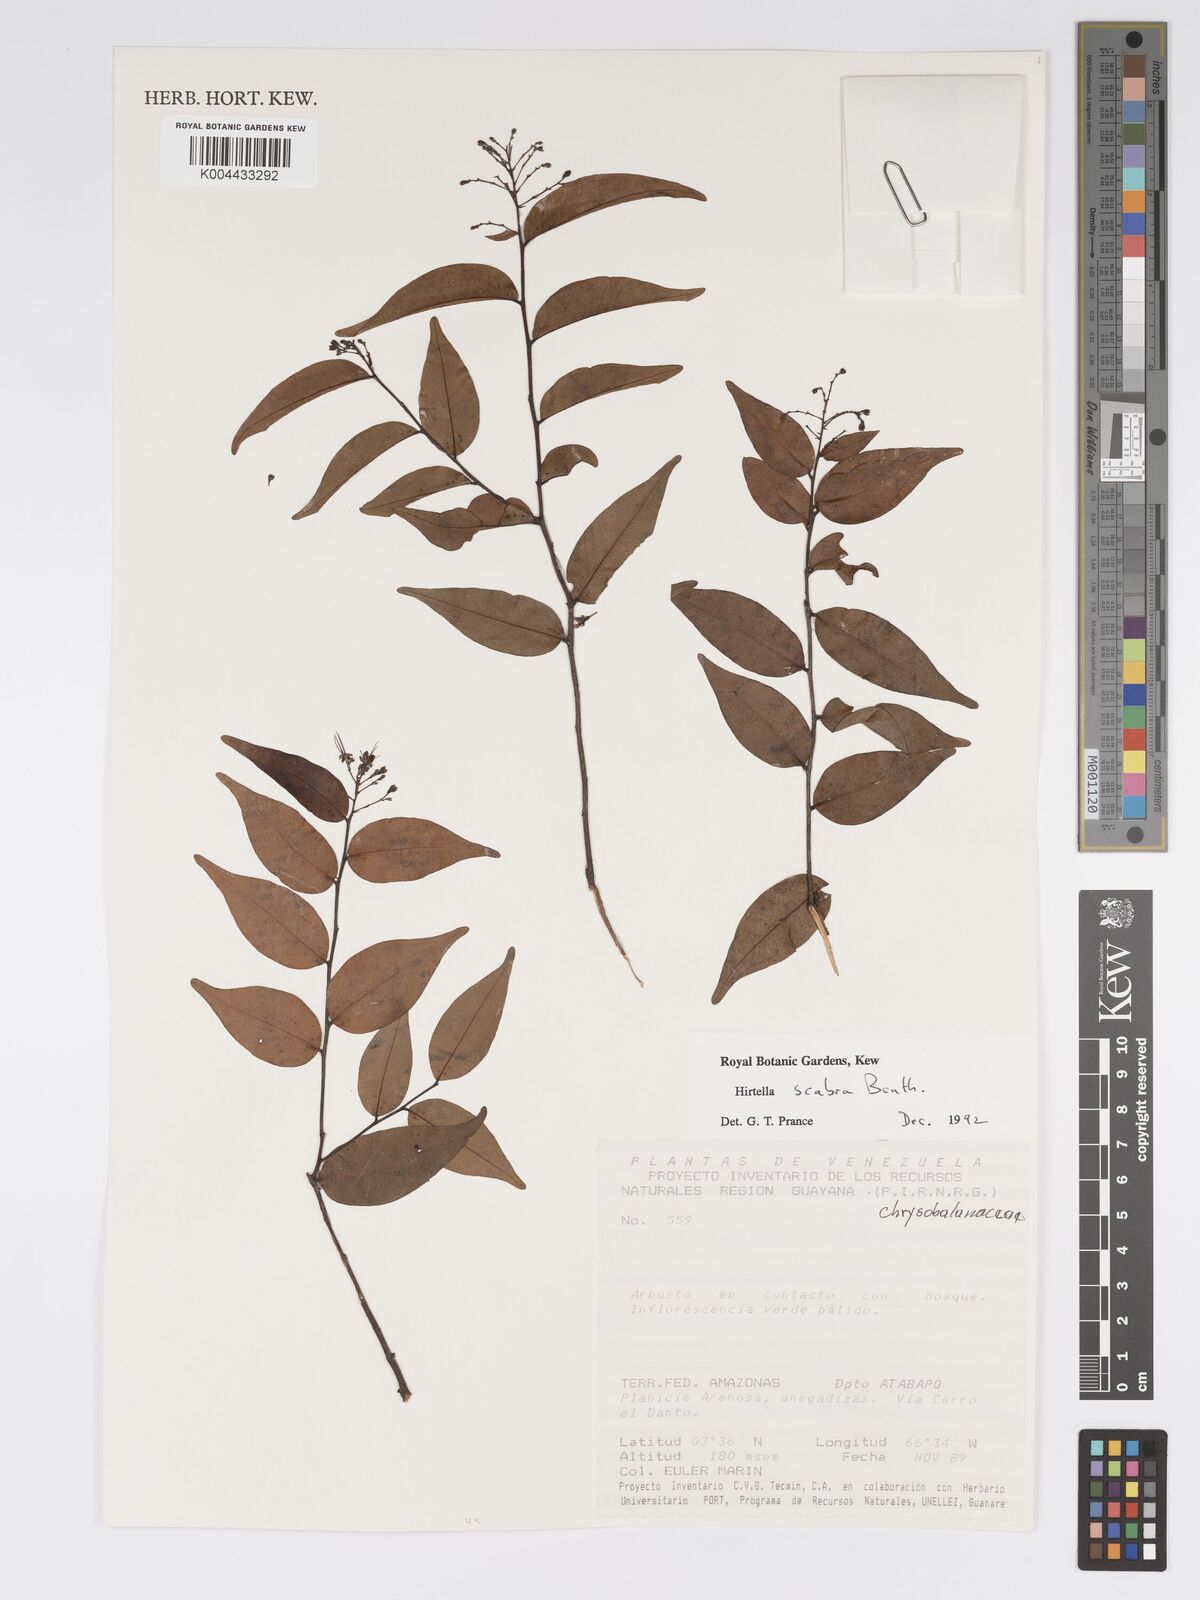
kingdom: Plantae
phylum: Tracheophyta
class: Magnoliopsida
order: Malpighiales
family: Chrysobalanaceae
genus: Hirtella
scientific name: Hirtella scabra
